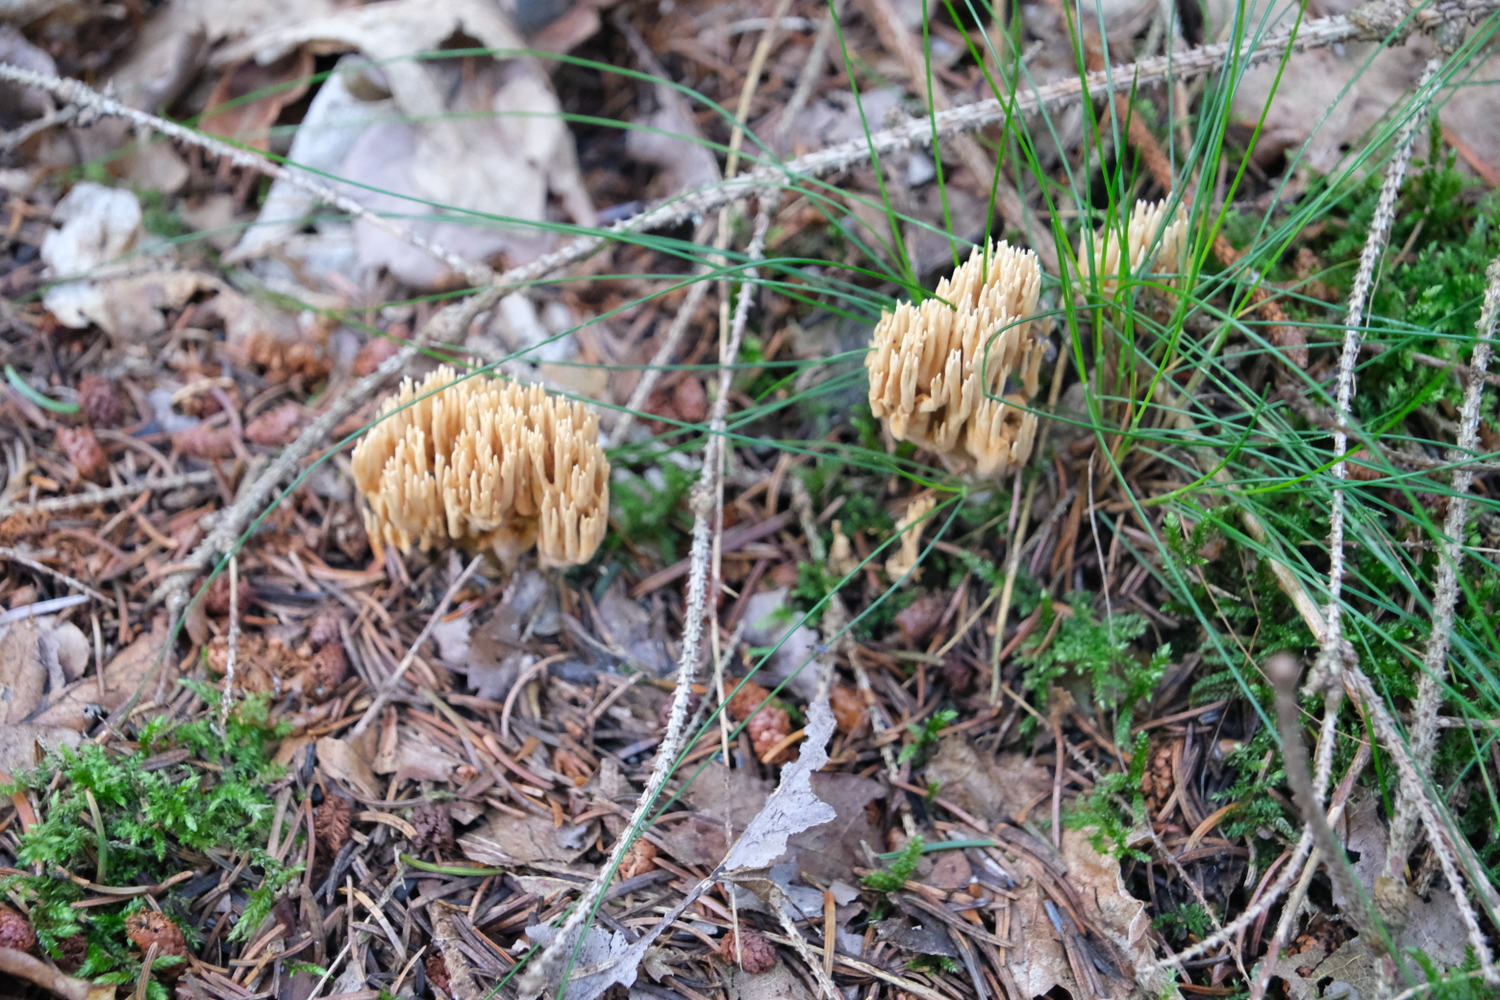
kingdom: Fungi
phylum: Basidiomycota
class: Agaricomycetes
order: Gomphales
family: Gomphaceae
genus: Phaeoclavulina
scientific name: Phaeoclavulina eumorpha
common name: gran-koralsvamp
